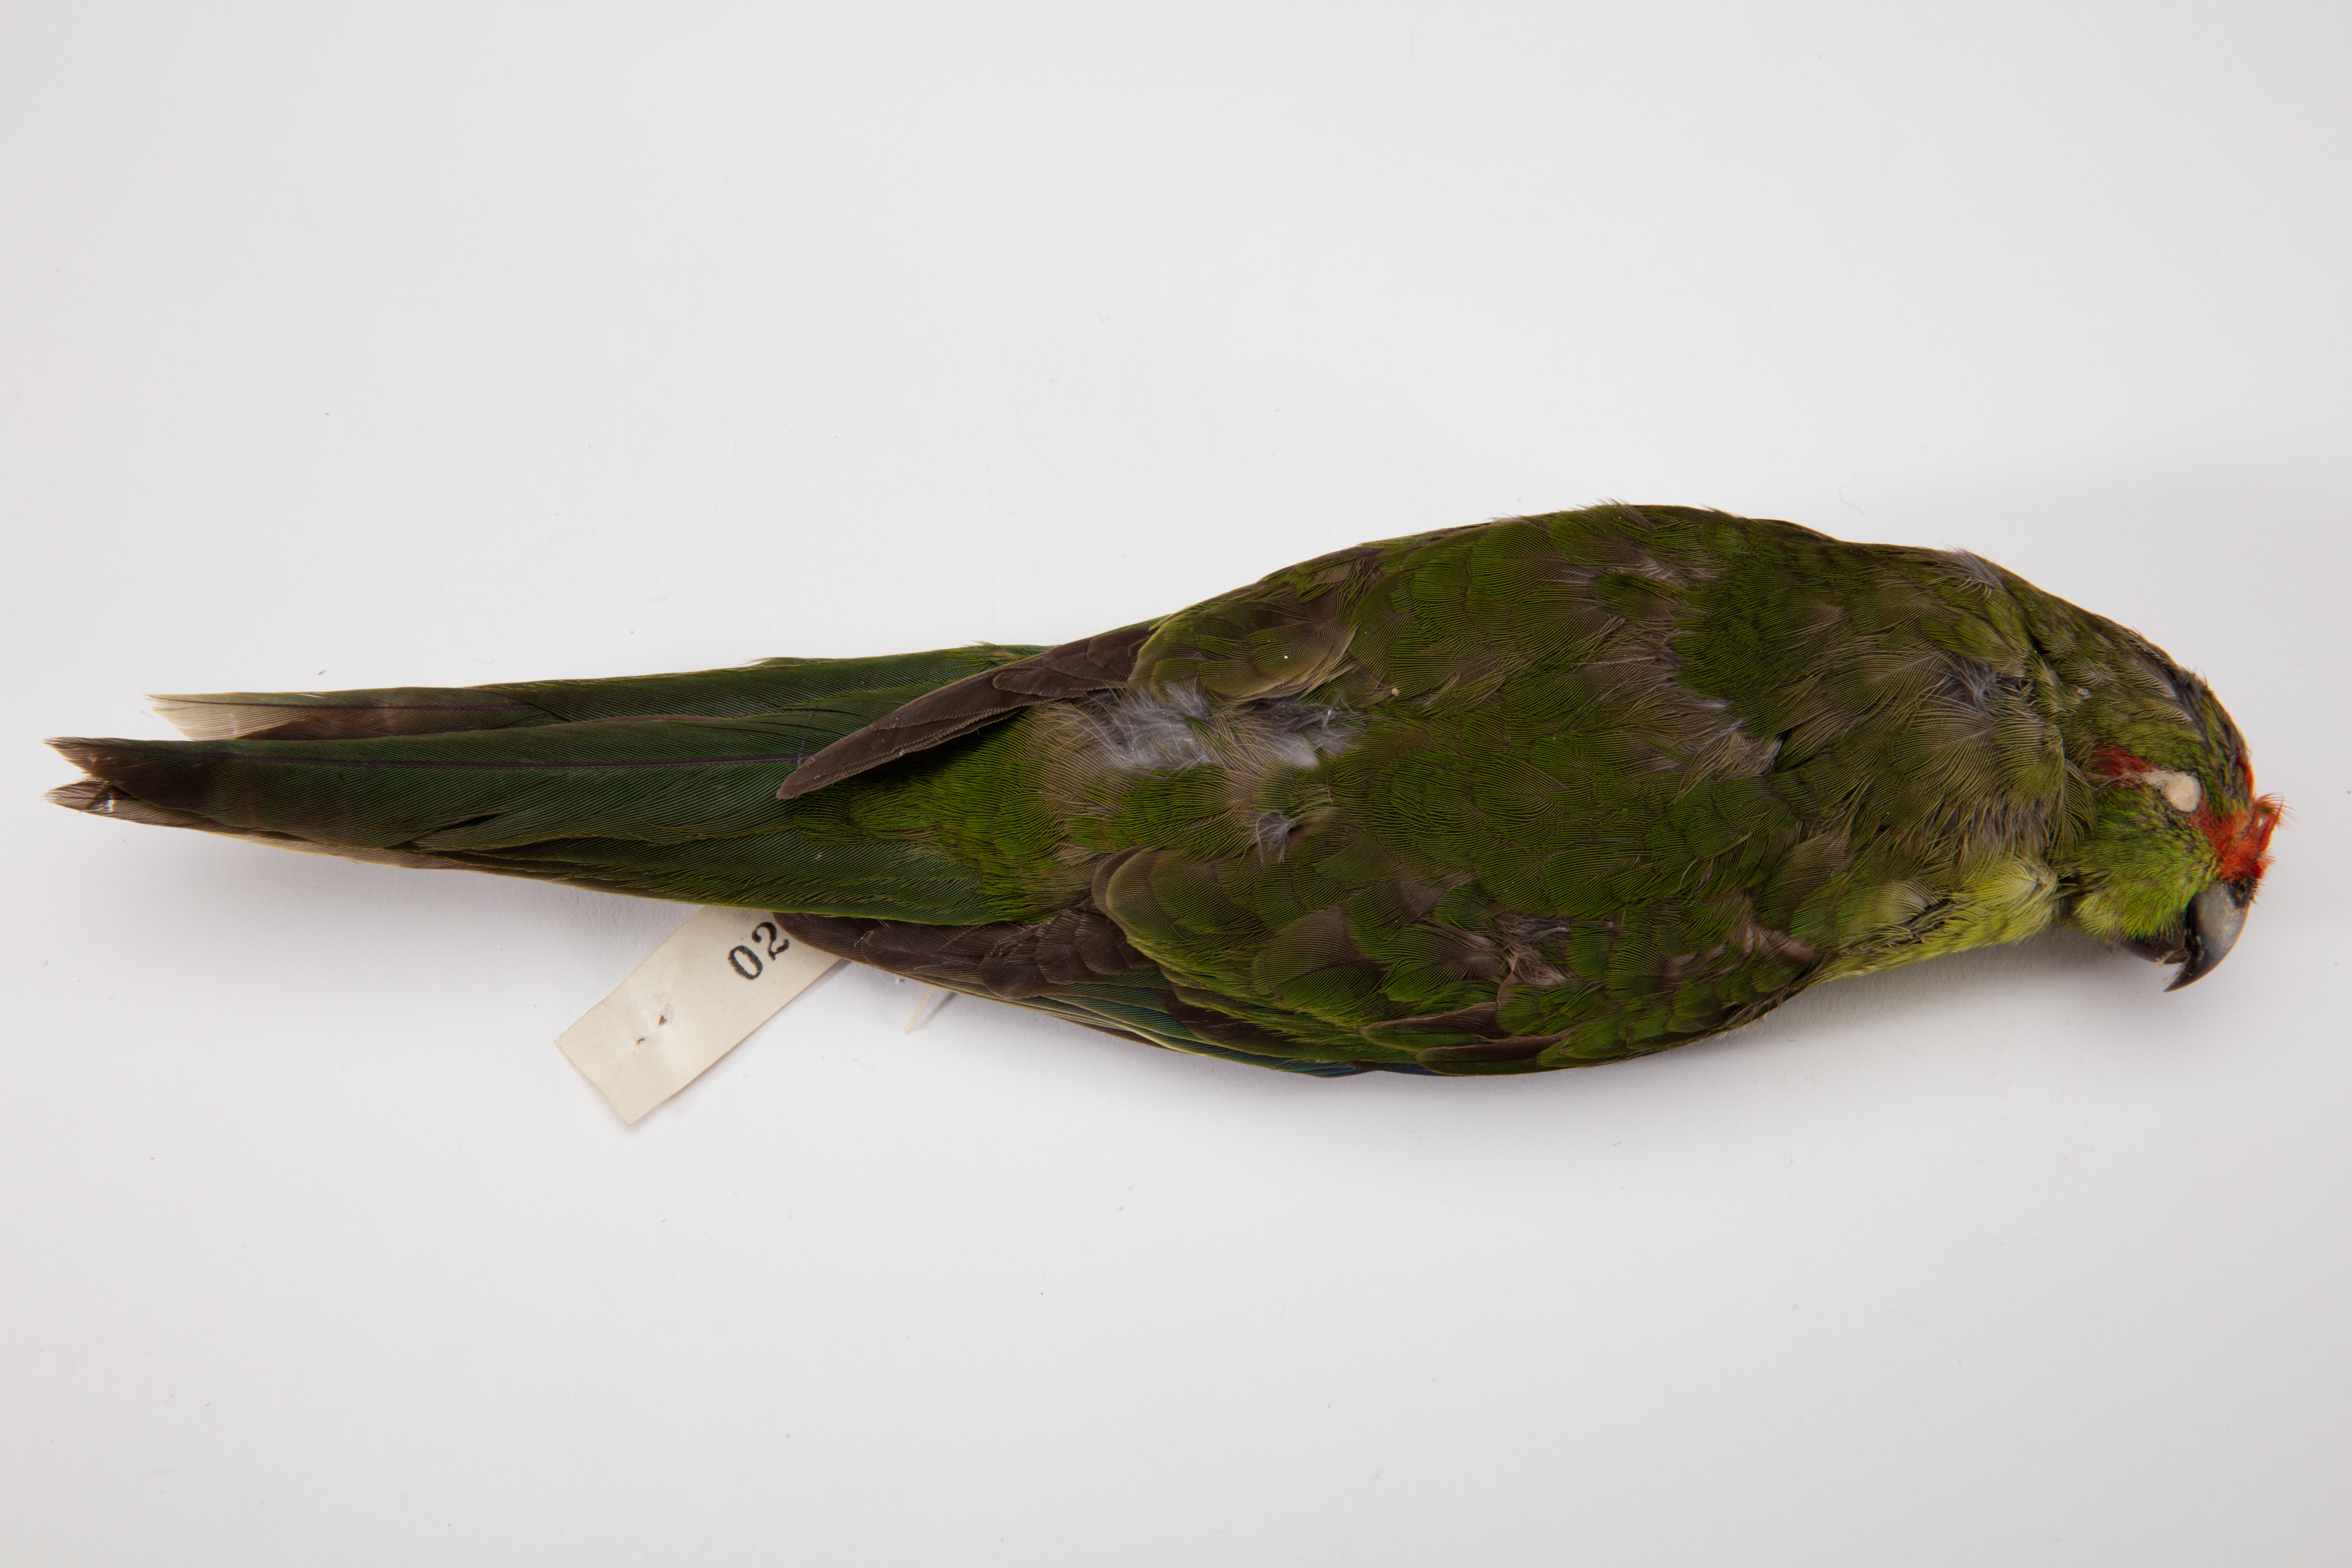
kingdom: Animalia
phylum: Chordata
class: Aves
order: Psittaciformes
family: Psittacidae
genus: Cyanoramphus
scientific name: Cyanoramphus novaezelandiae
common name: Red-fronted parakeet
